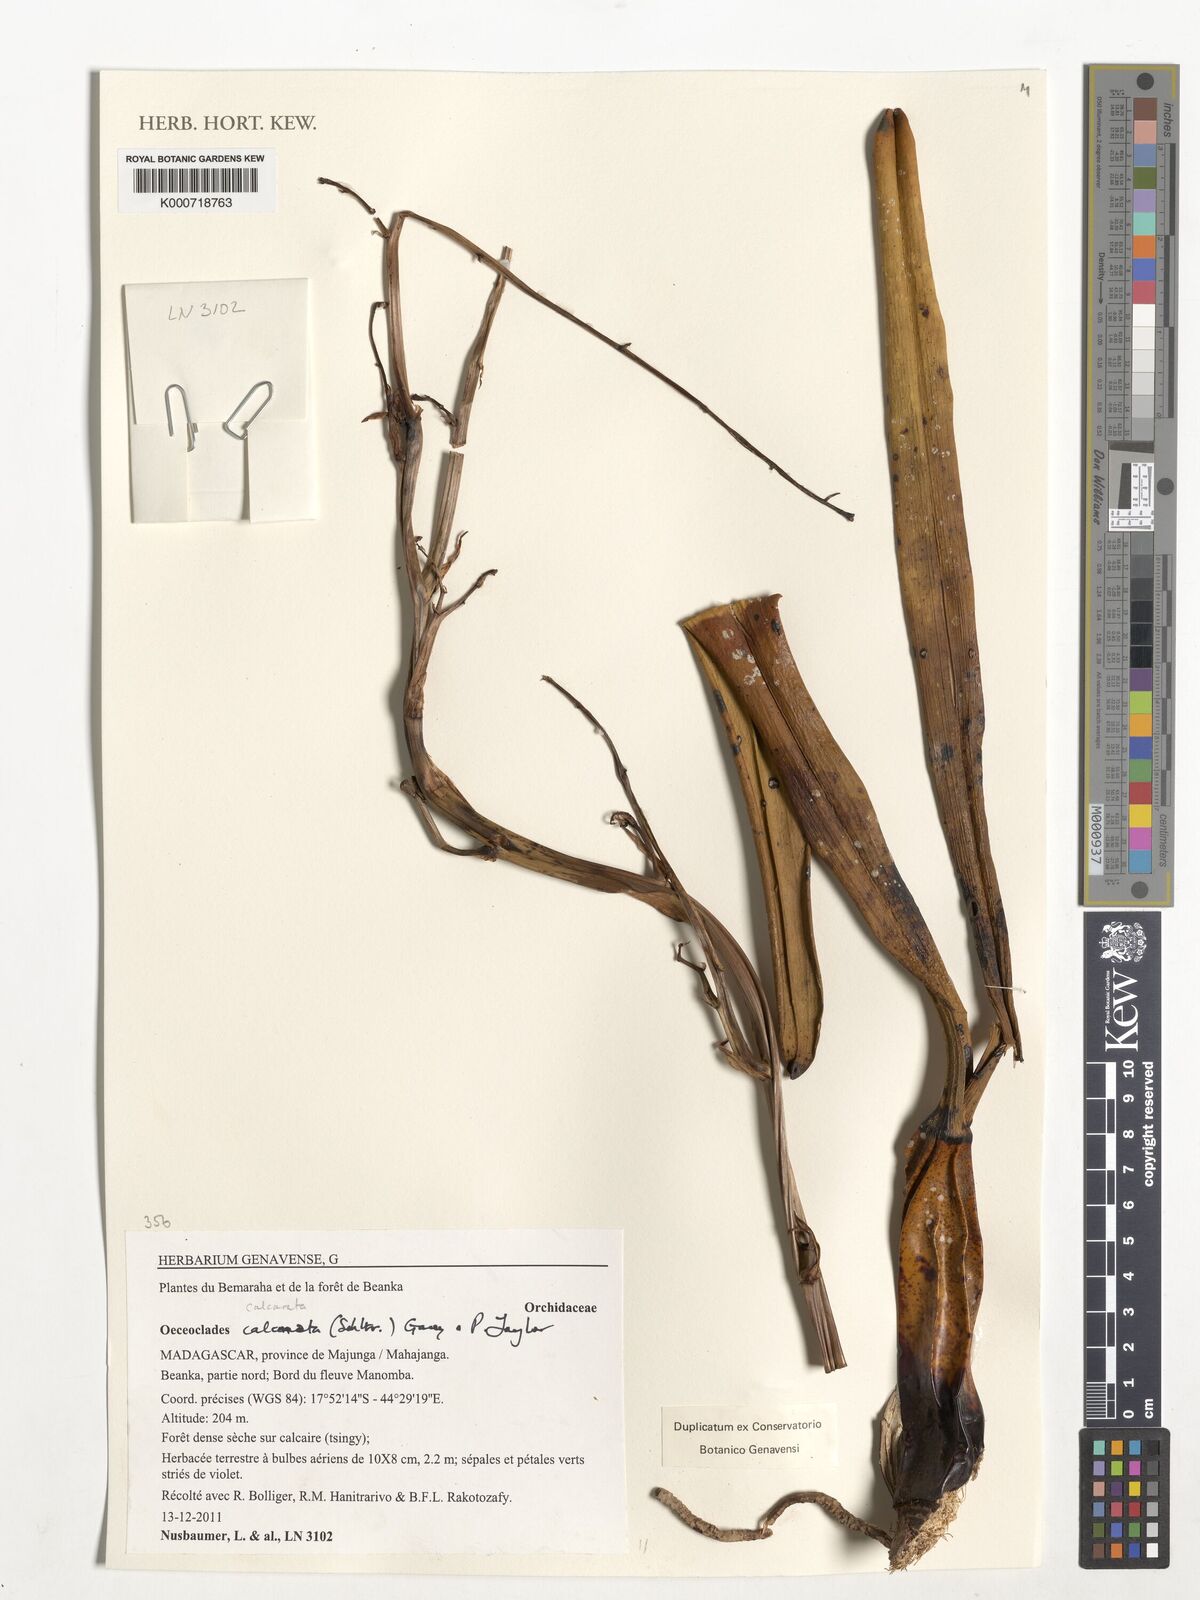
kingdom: Plantae
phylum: Tracheophyta
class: Liliopsida
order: Asparagales
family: Orchidaceae
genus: Eulophia
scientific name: Eulophia calcarata
